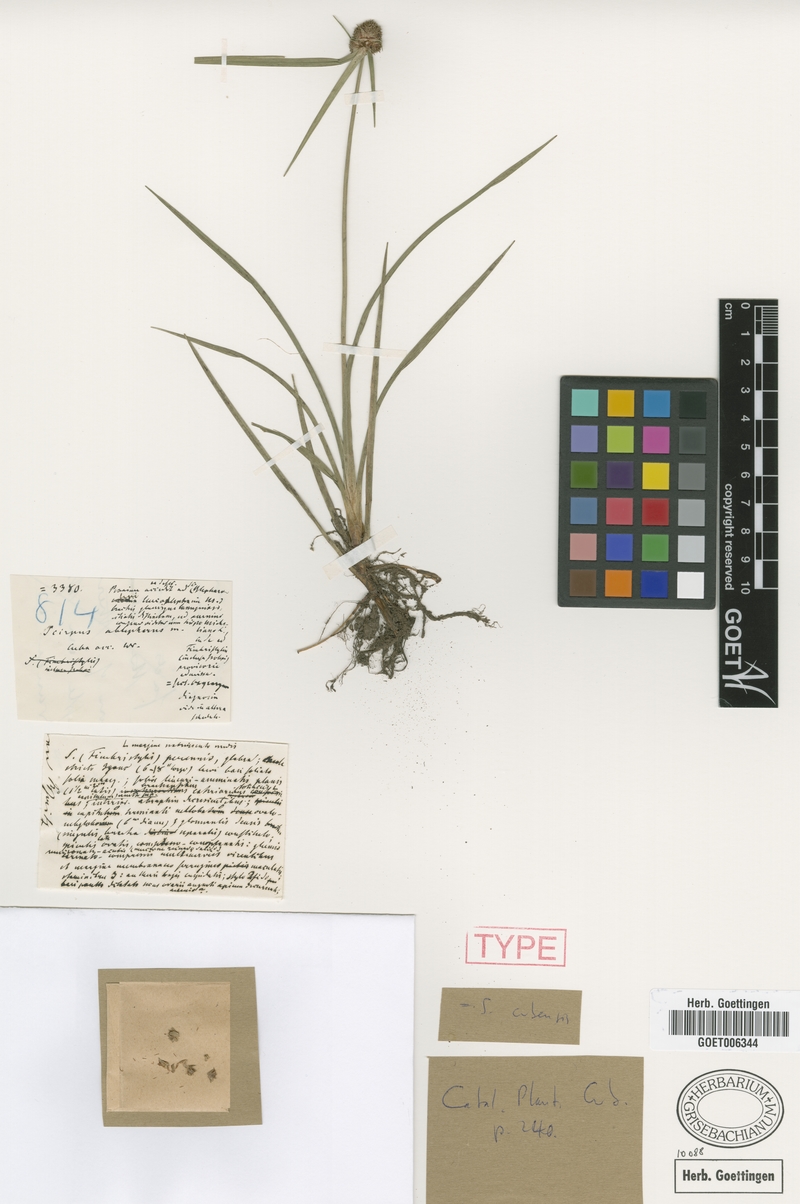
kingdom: Plantae
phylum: Tracheophyta
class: Liliopsida
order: Poales
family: Cyperaceae
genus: Cyperus
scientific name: Cyperus blepharoleptos
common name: Cuban bulrush
